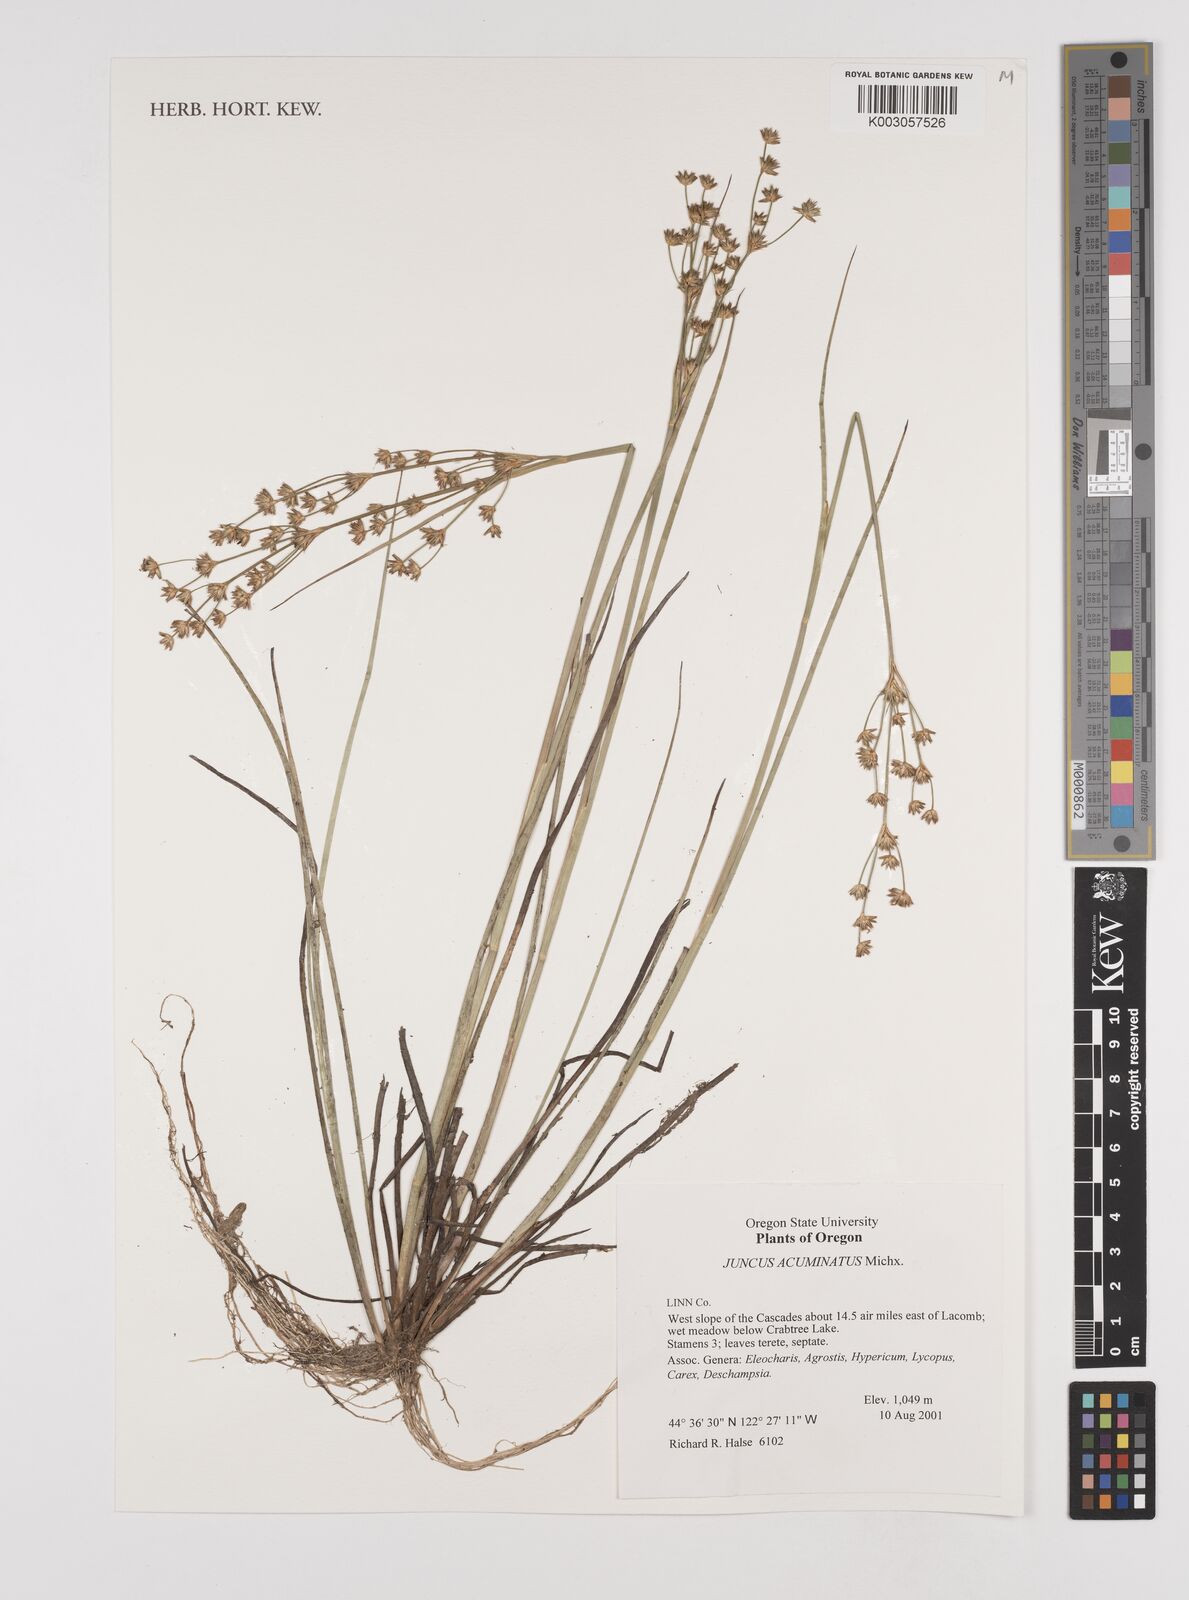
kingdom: Plantae
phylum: Tracheophyta
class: Liliopsida
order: Poales
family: Juncaceae
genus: Juncus
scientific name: Juncus acuminatus
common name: Knotty-leaved rush
